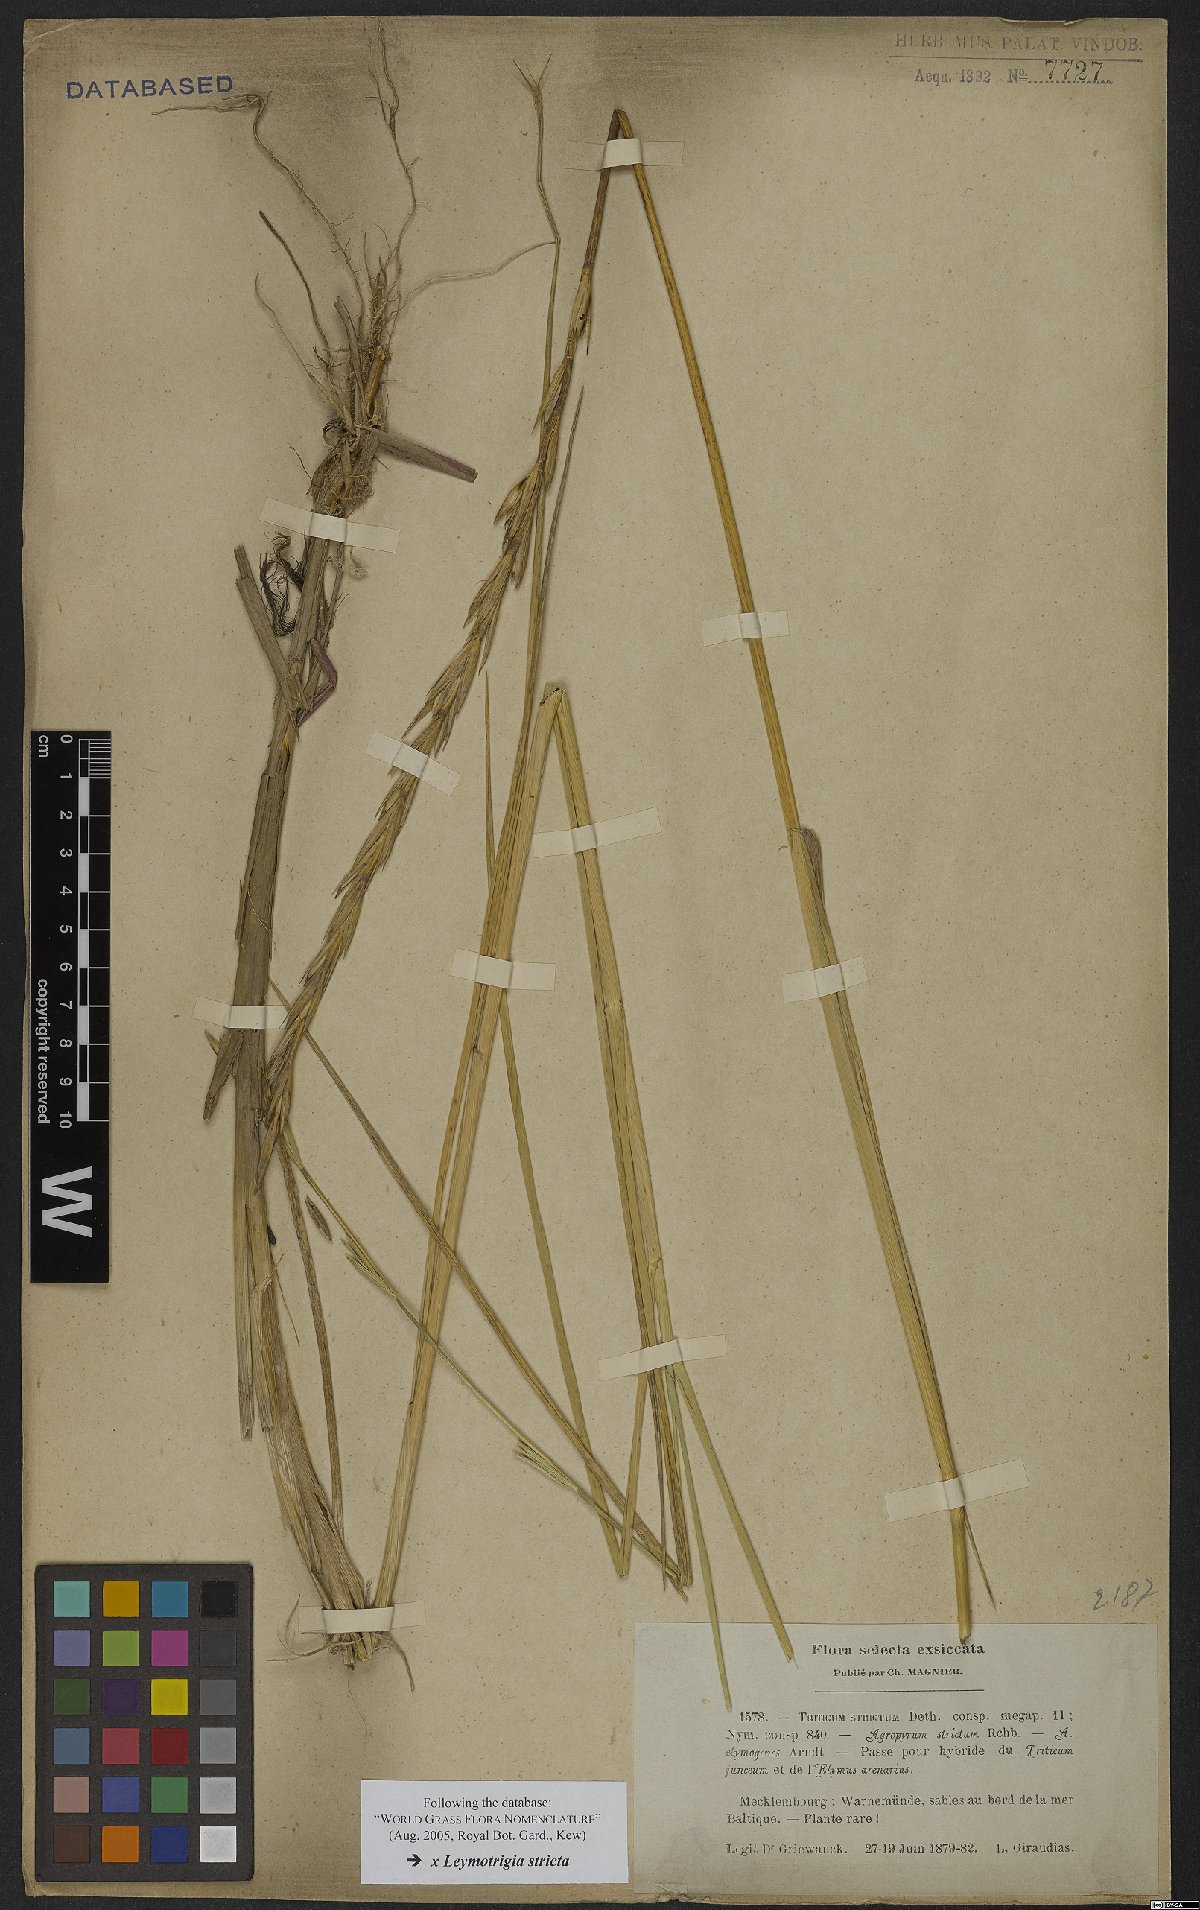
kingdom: Plantae
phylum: Tracheophyta
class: Liliopsida
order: Poales
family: Poaceae
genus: Elyleymus
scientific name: Elyleymus strictus
